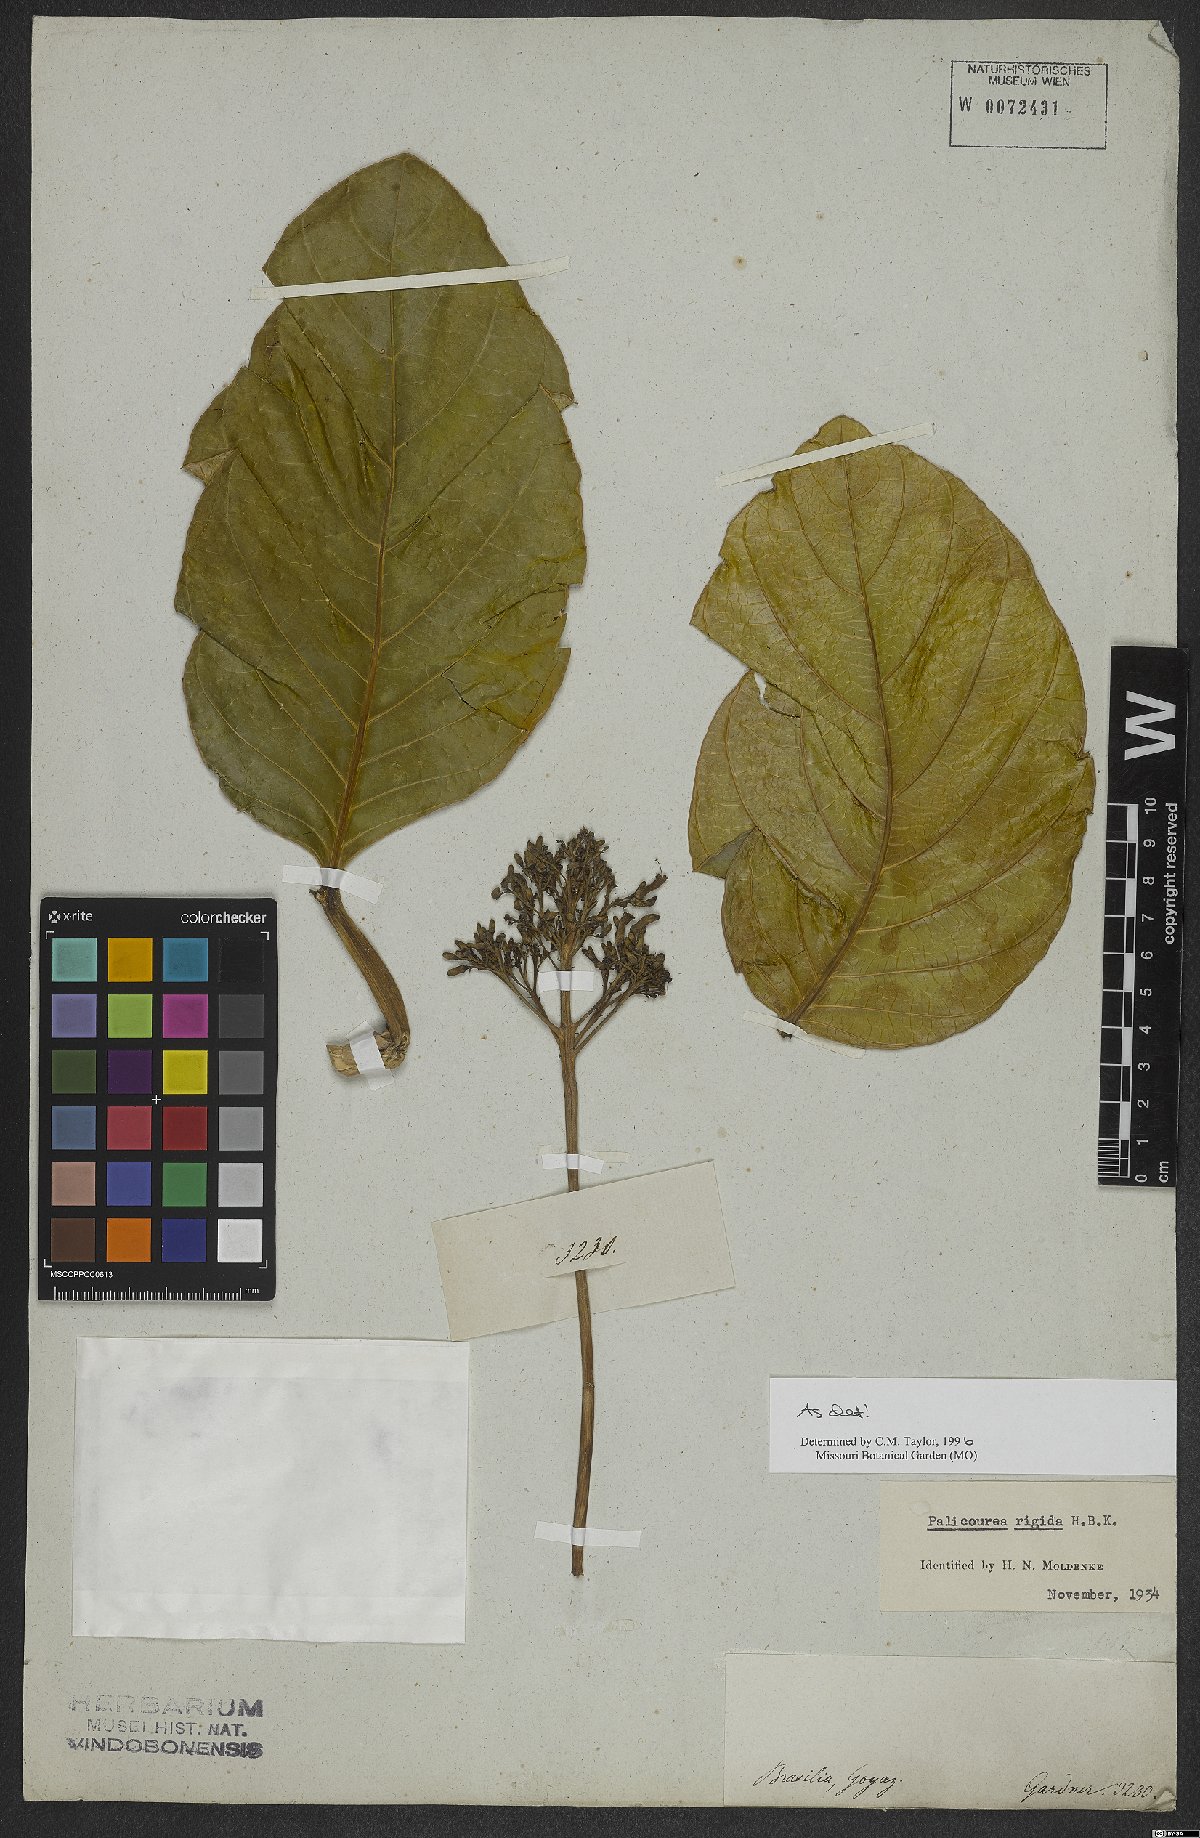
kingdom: Plantae
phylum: Tracheophyta
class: Magnoliopsida
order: Gentianales
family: Rubiaceae
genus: Palicourea
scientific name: Palicourea rigida
